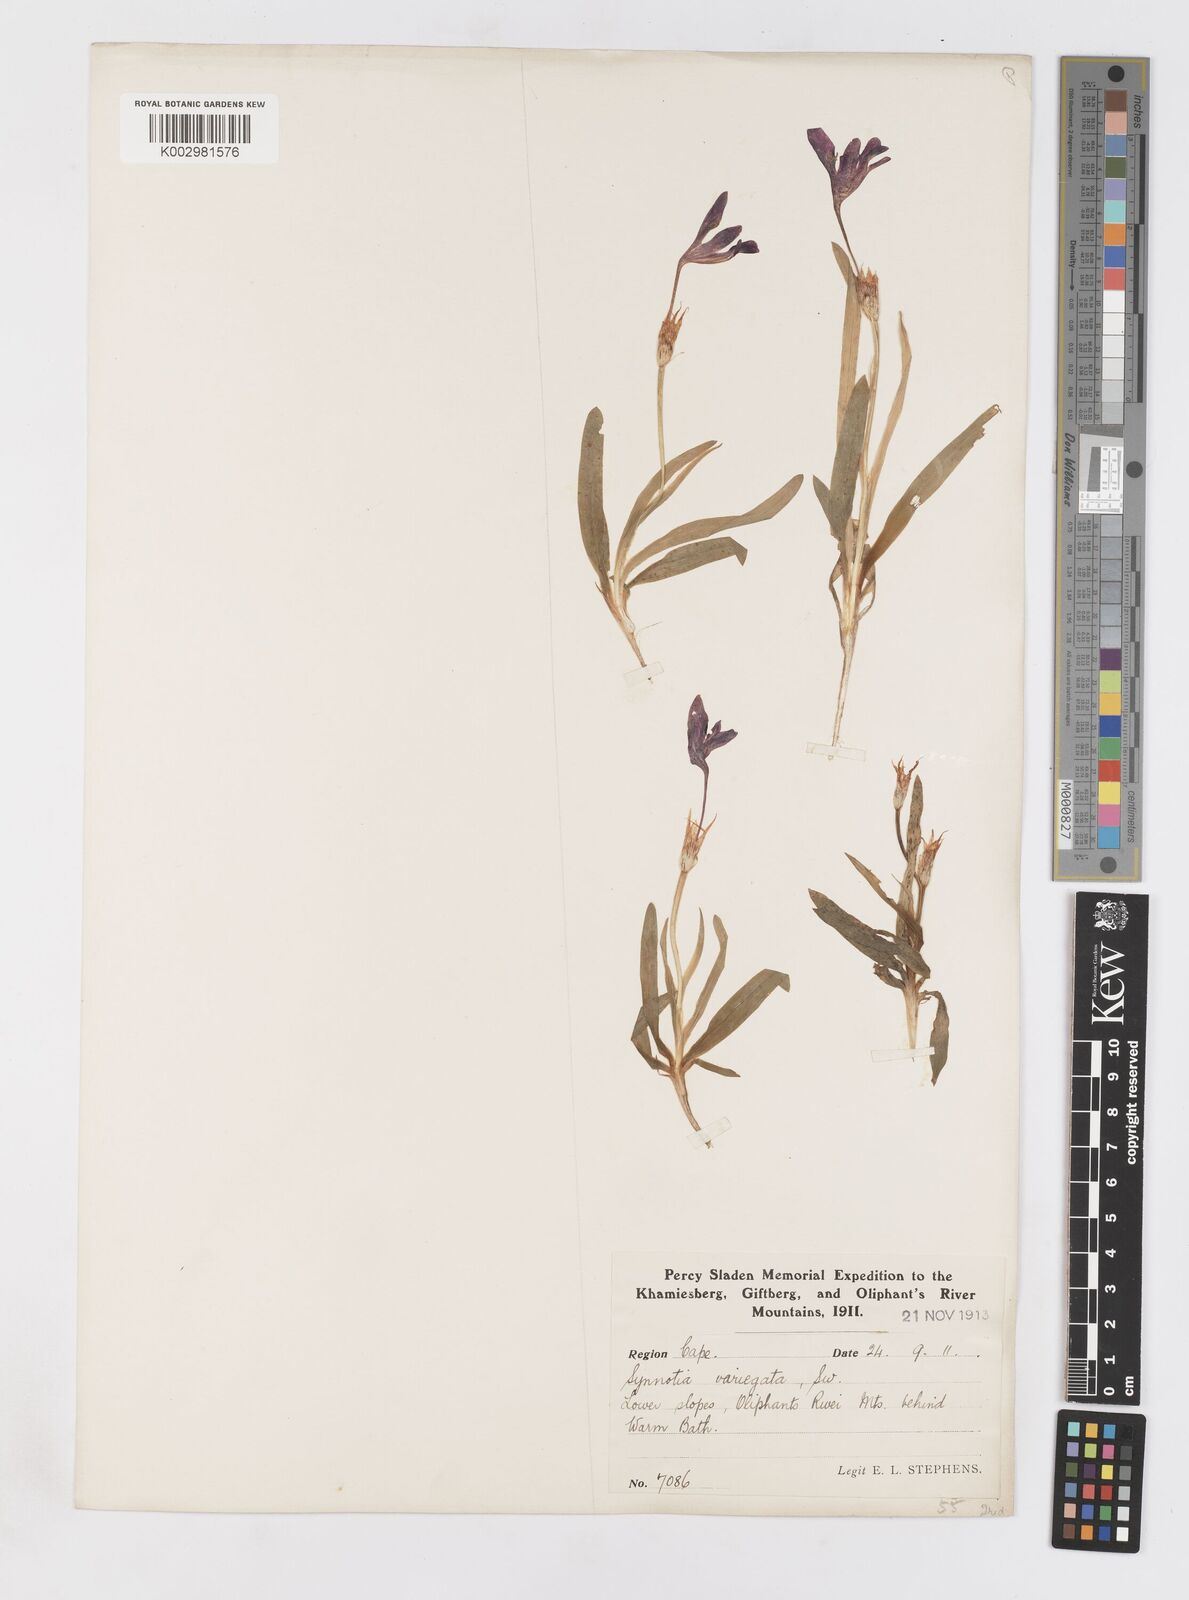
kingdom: Plantae
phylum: Tracheophyta
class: Liliopsida
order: Asparagales
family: Iridaceae
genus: Sparaxis
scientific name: Sparaxis metelerkampiae
